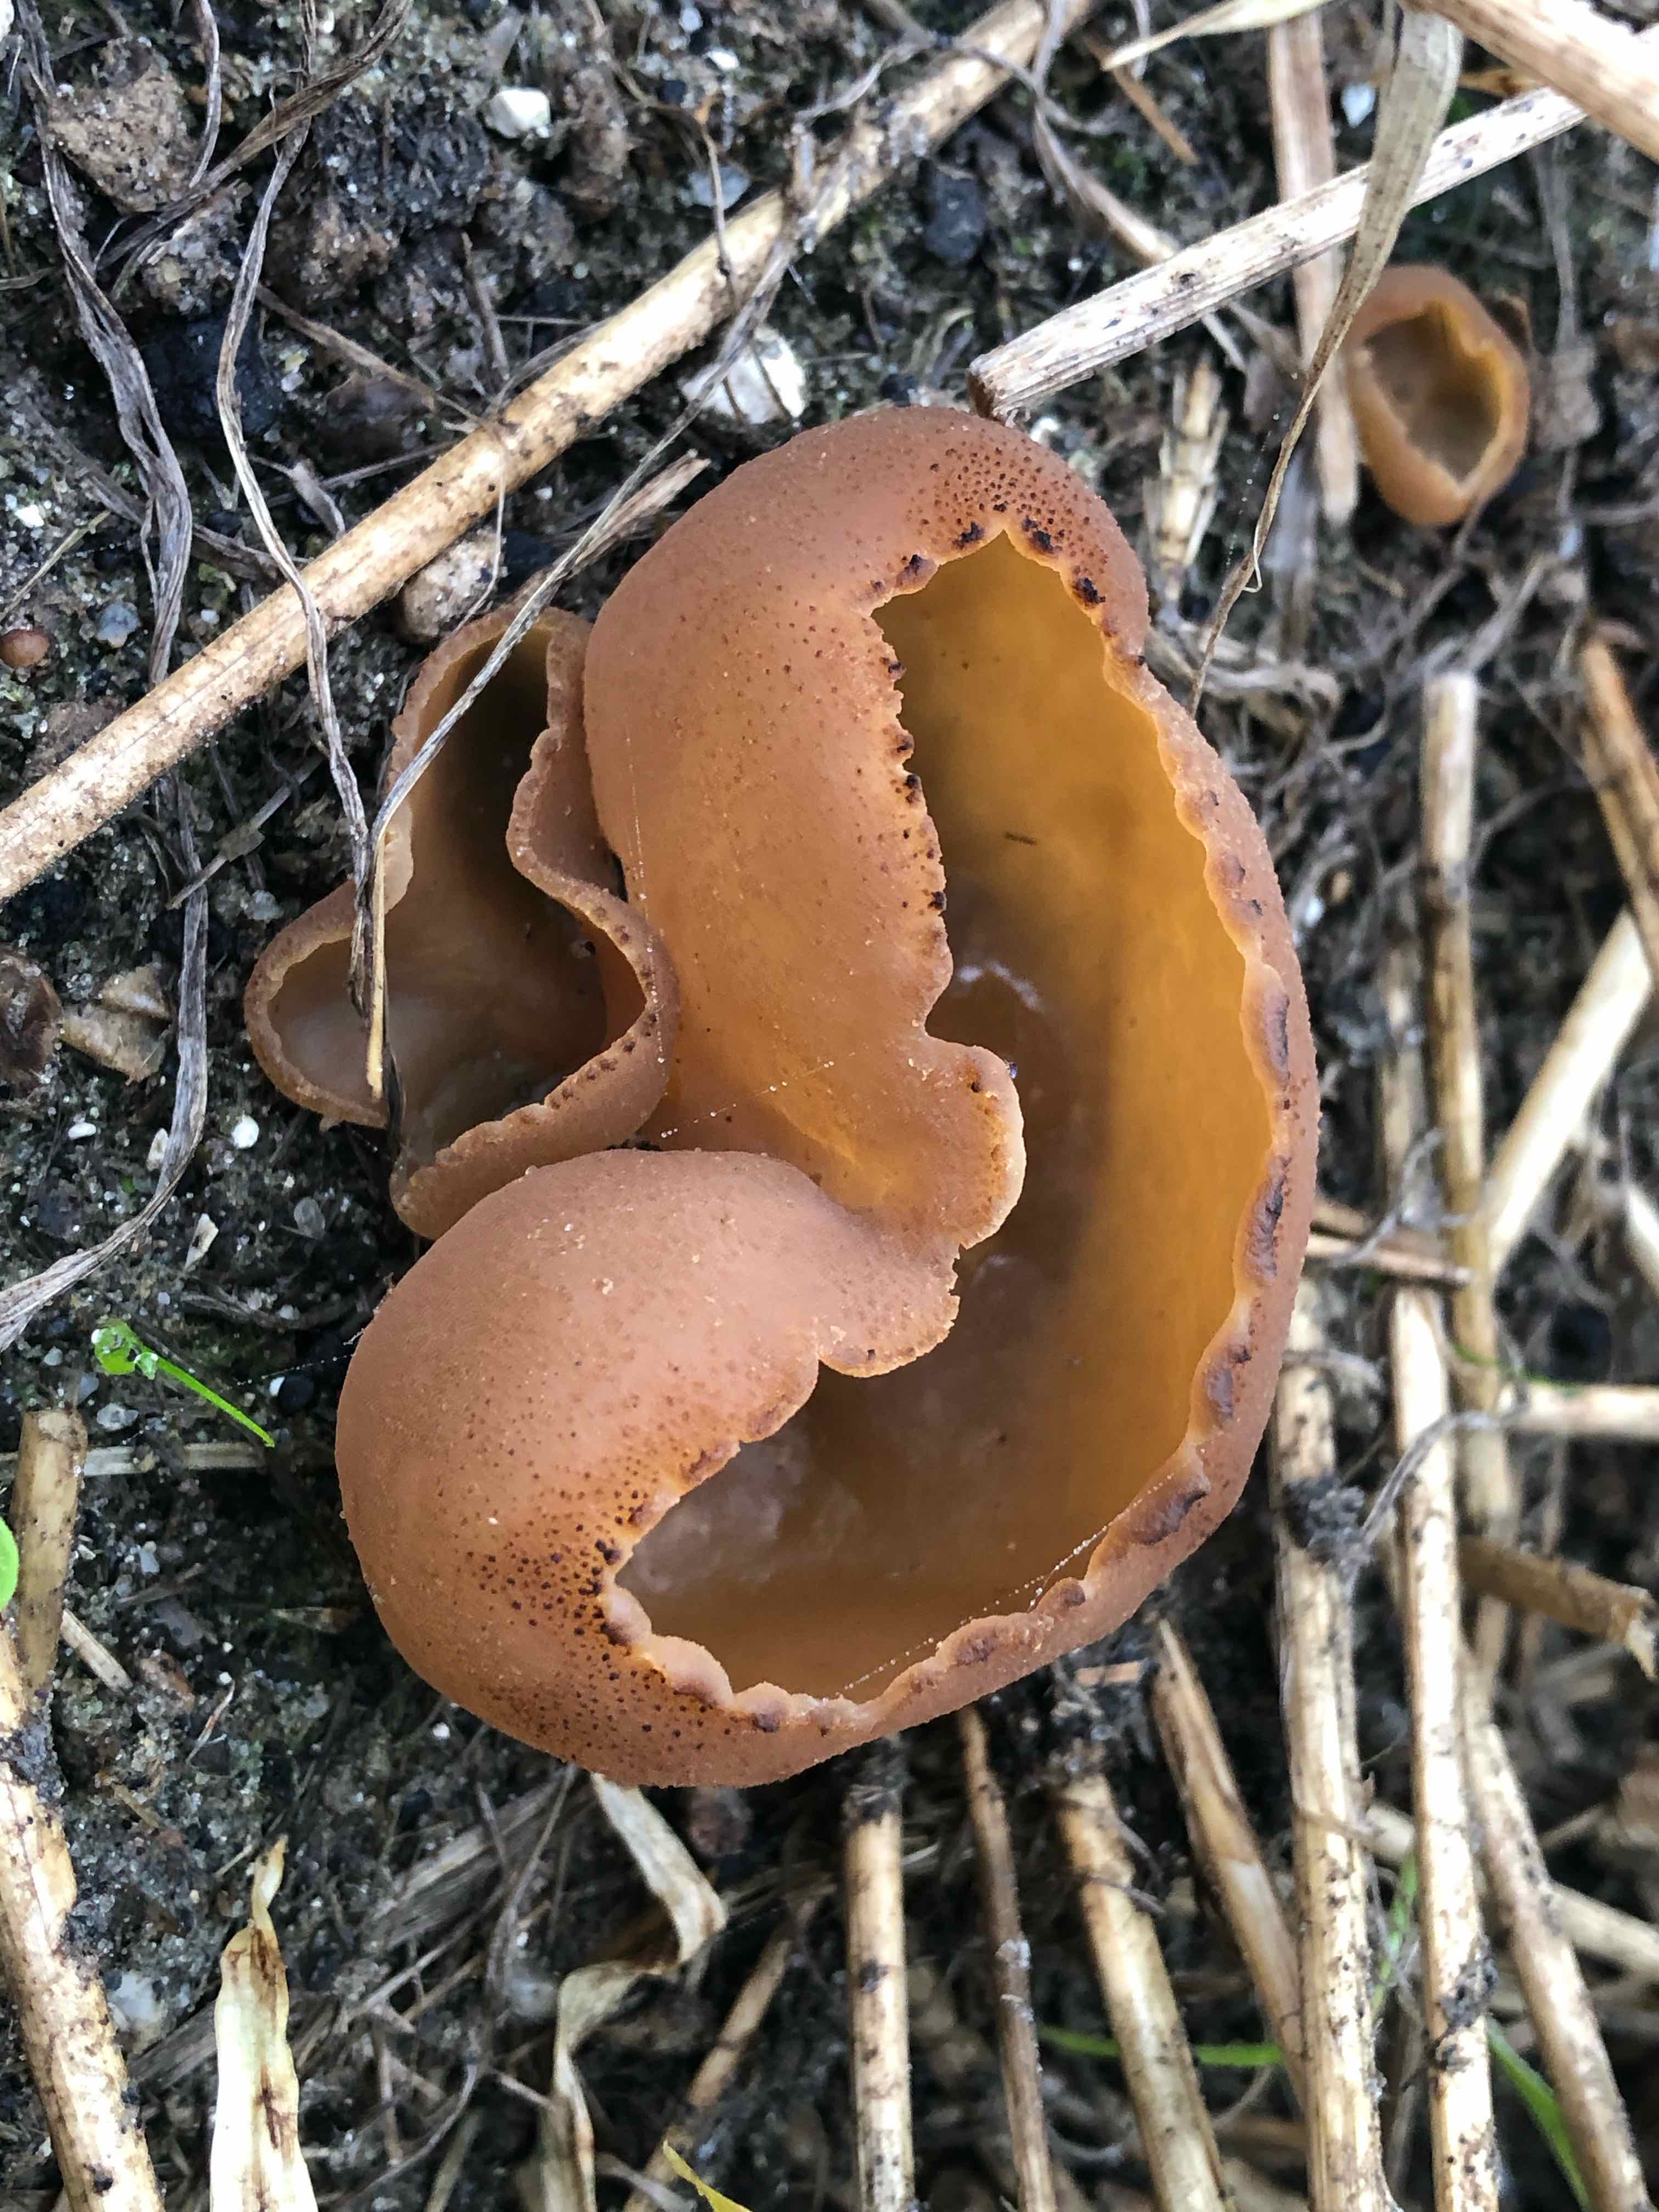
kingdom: Fungi
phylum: Ascomycota
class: Pezizomycetes
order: Pezizales
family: Pezizaceae
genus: Peziza
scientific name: Peziza vesiculosa
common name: blære-bægersvamp
